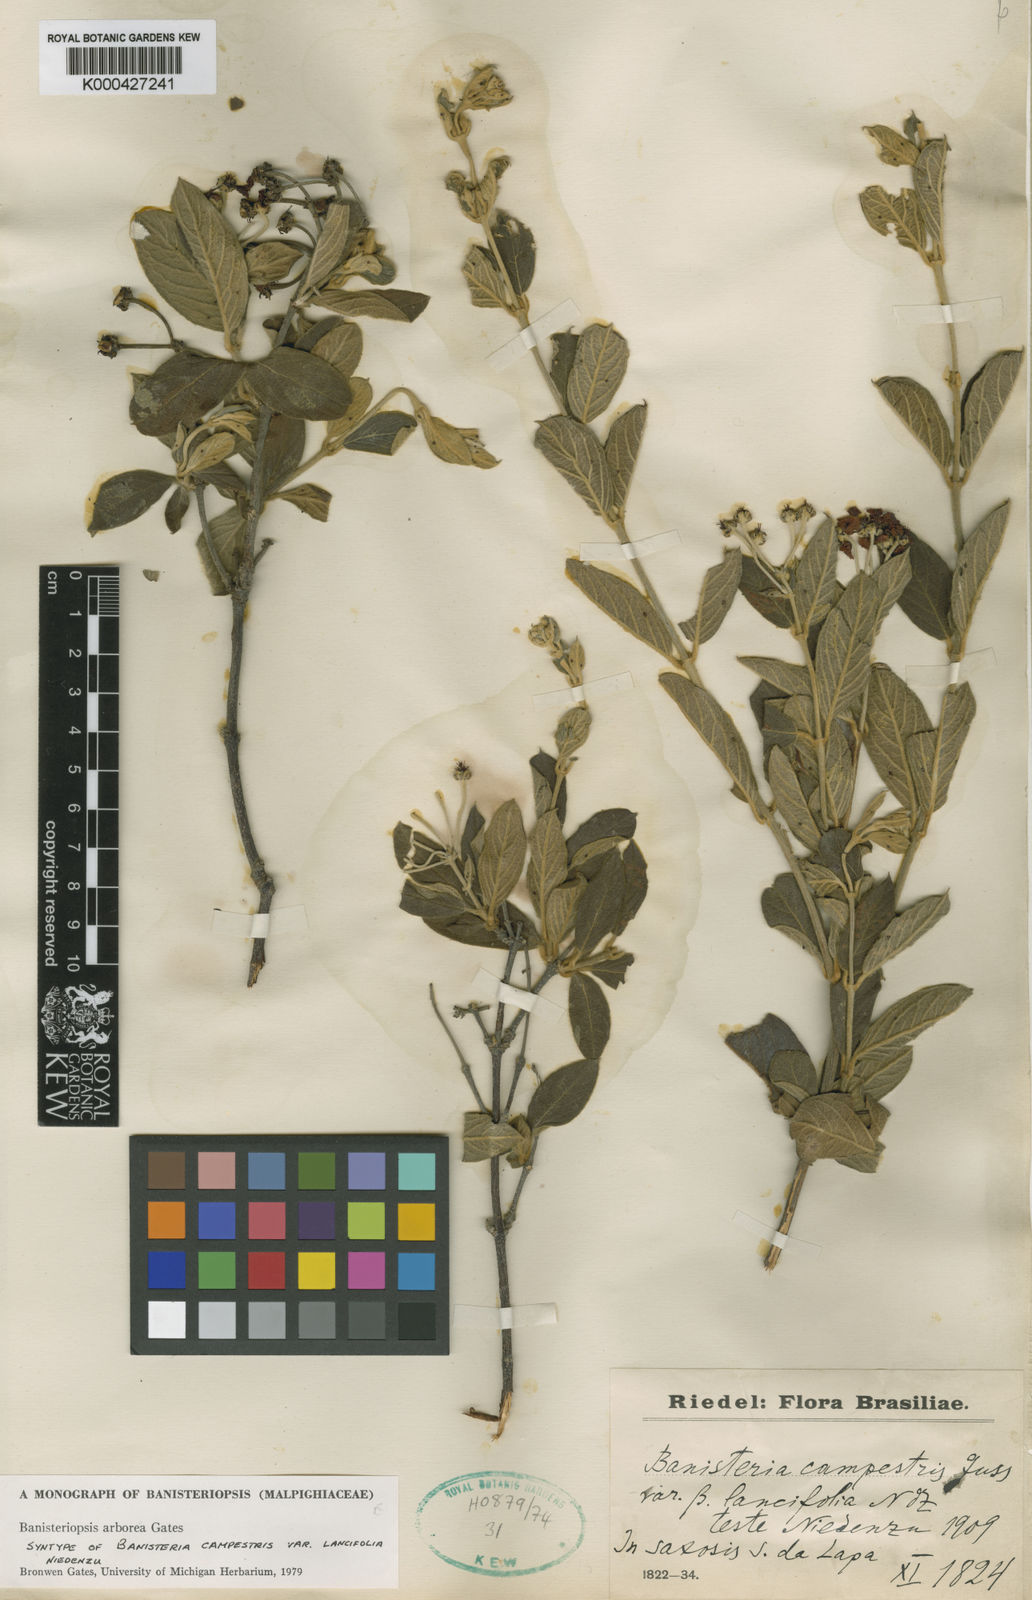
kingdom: Plantae
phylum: Tracheophyta
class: Magnoliopsida
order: Malpighiales
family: Malpighiaceae
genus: Banisteriopsis
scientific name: Banisteriopsis arborea
